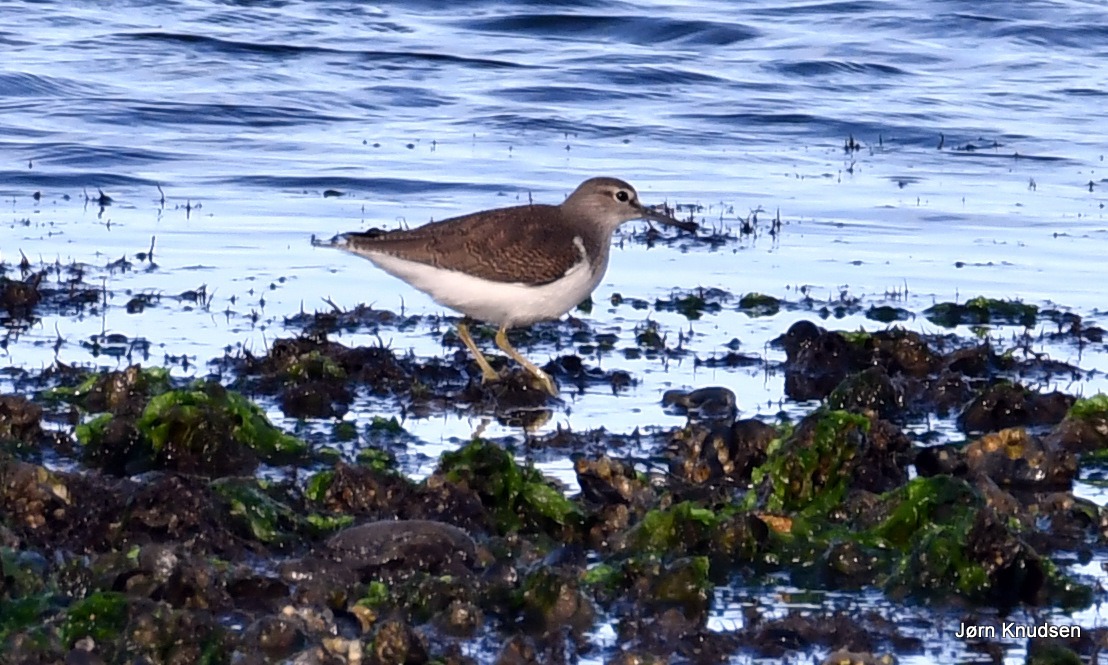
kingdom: Animalia
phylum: Chordata
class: Aves
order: Charadriiformes
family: Scolopacidae
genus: Actitis
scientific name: Actitis hypoleucos
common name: Mudderklire
